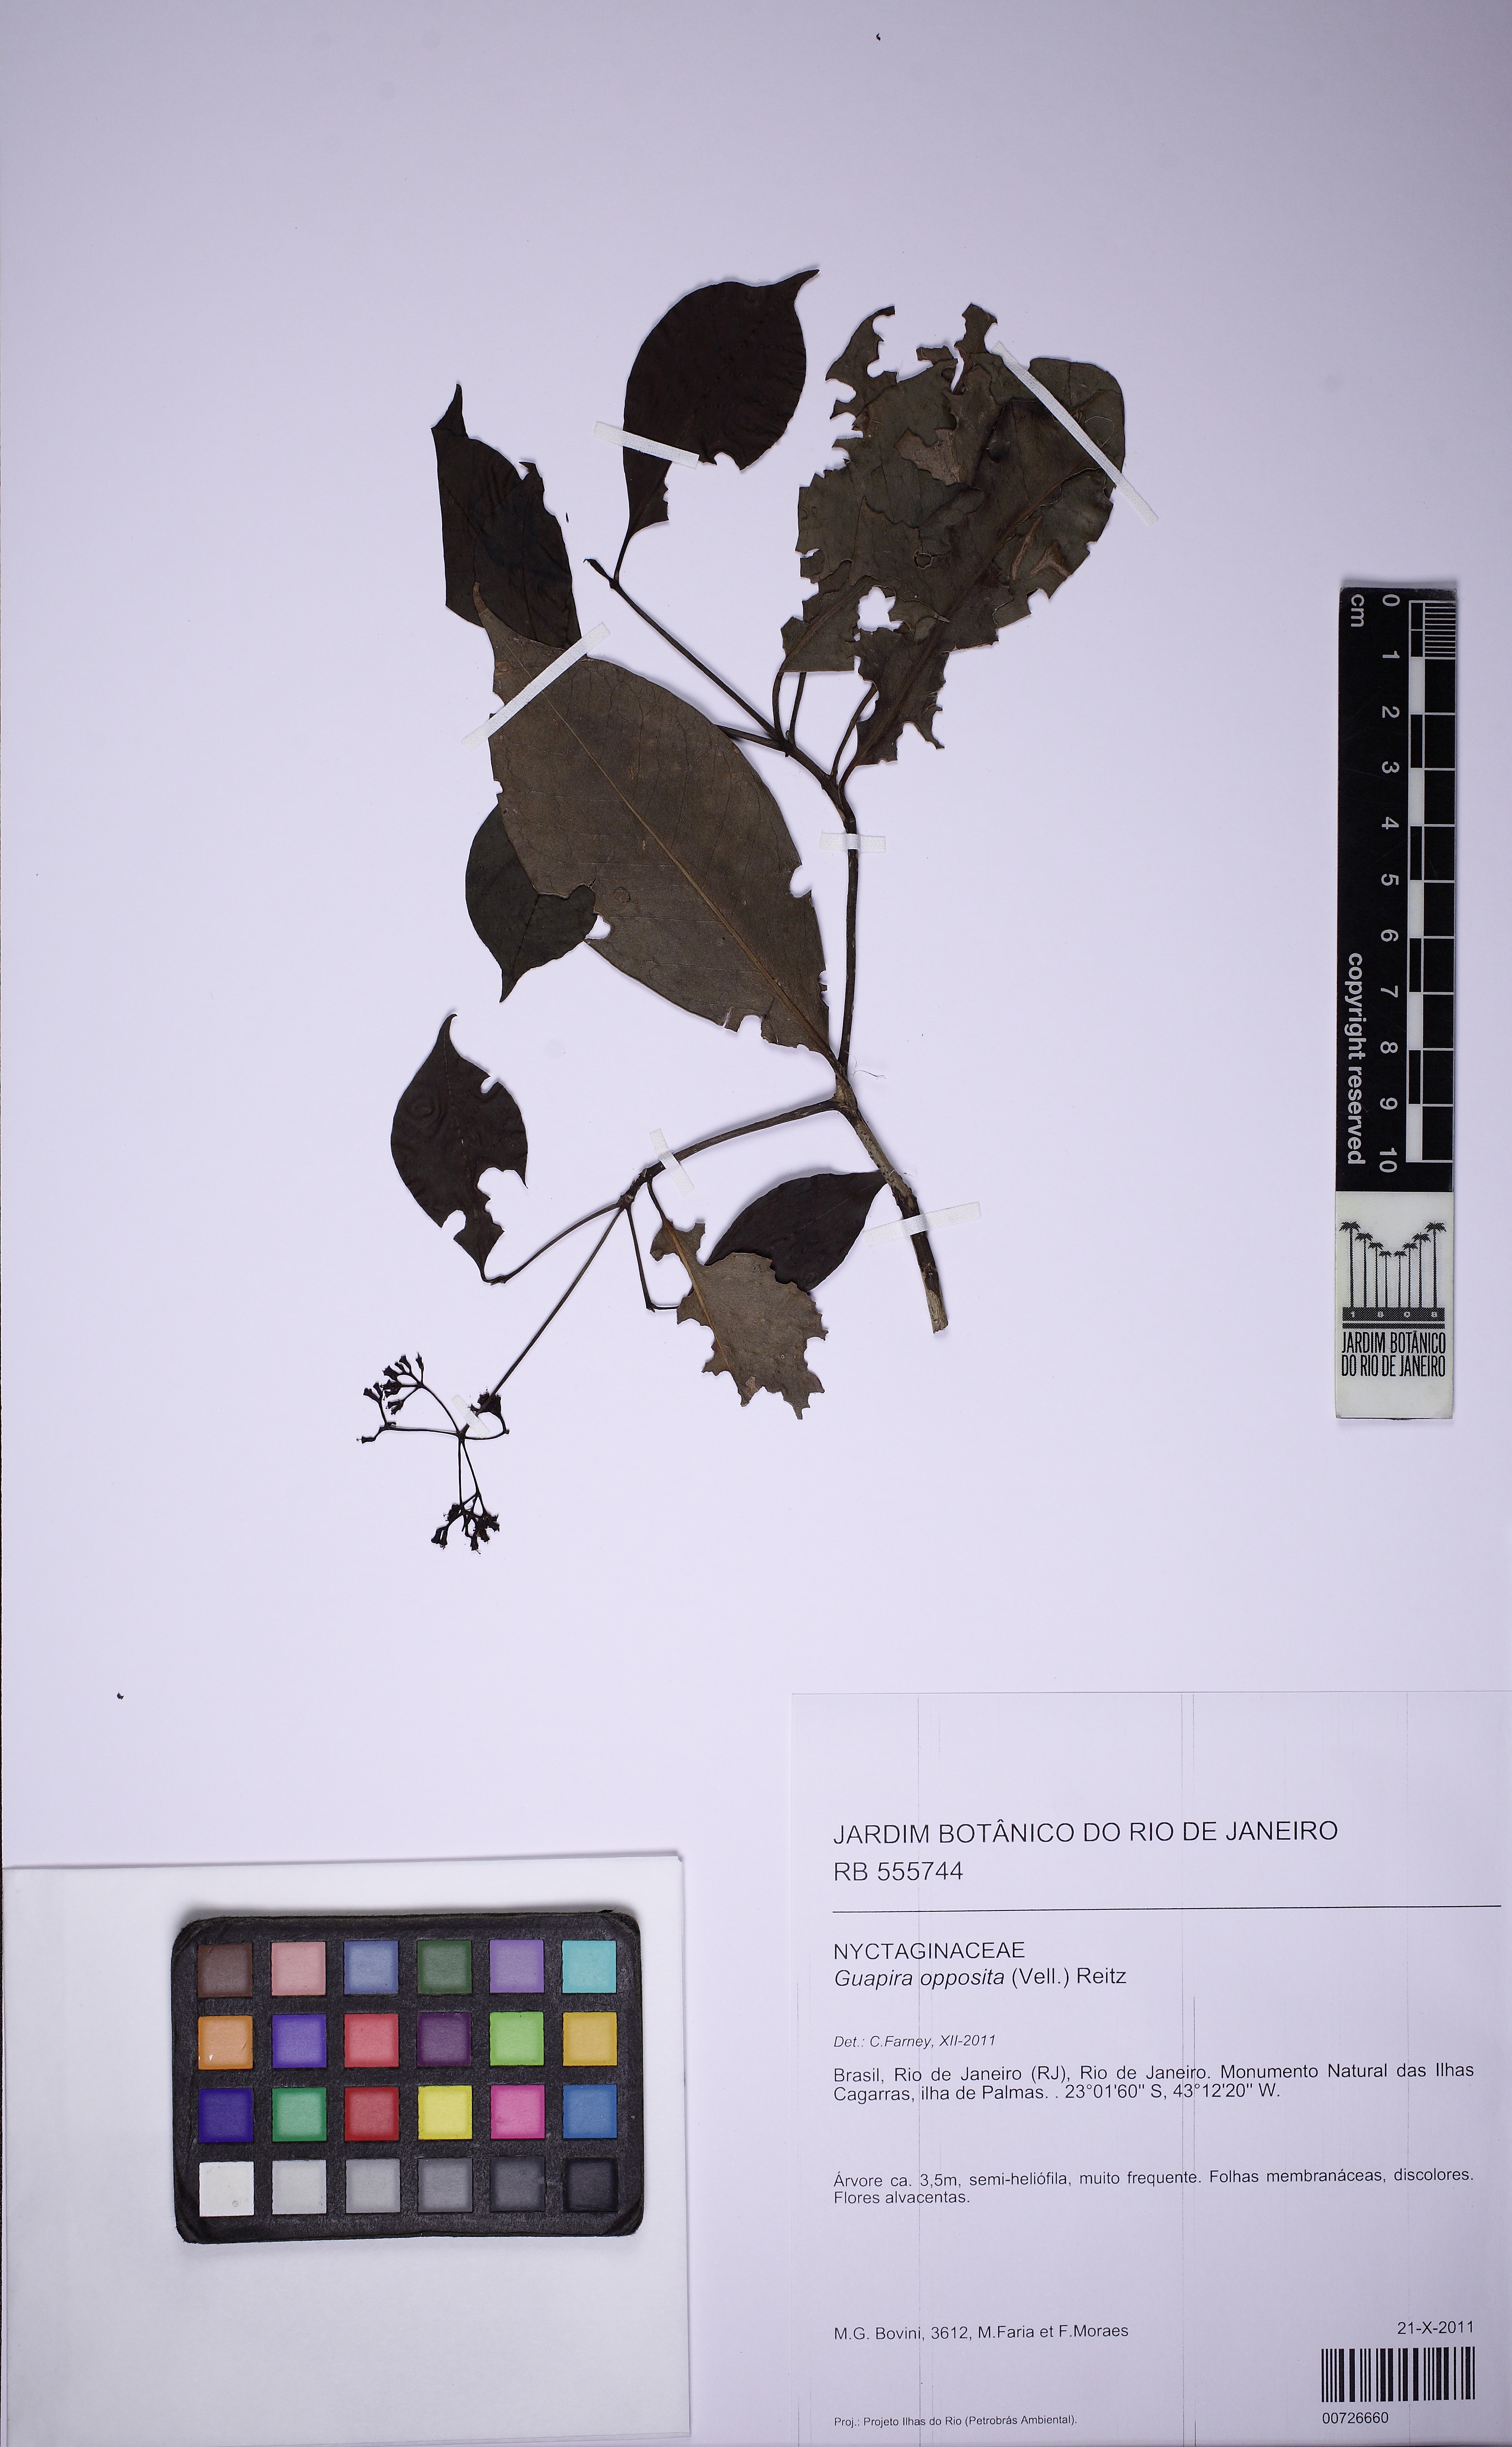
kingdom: Plantae
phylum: Tracheophyta
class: Magnoliopsida
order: Caryophyllales
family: Nyctaginaceae
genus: Guapira
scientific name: Guapira opposita
